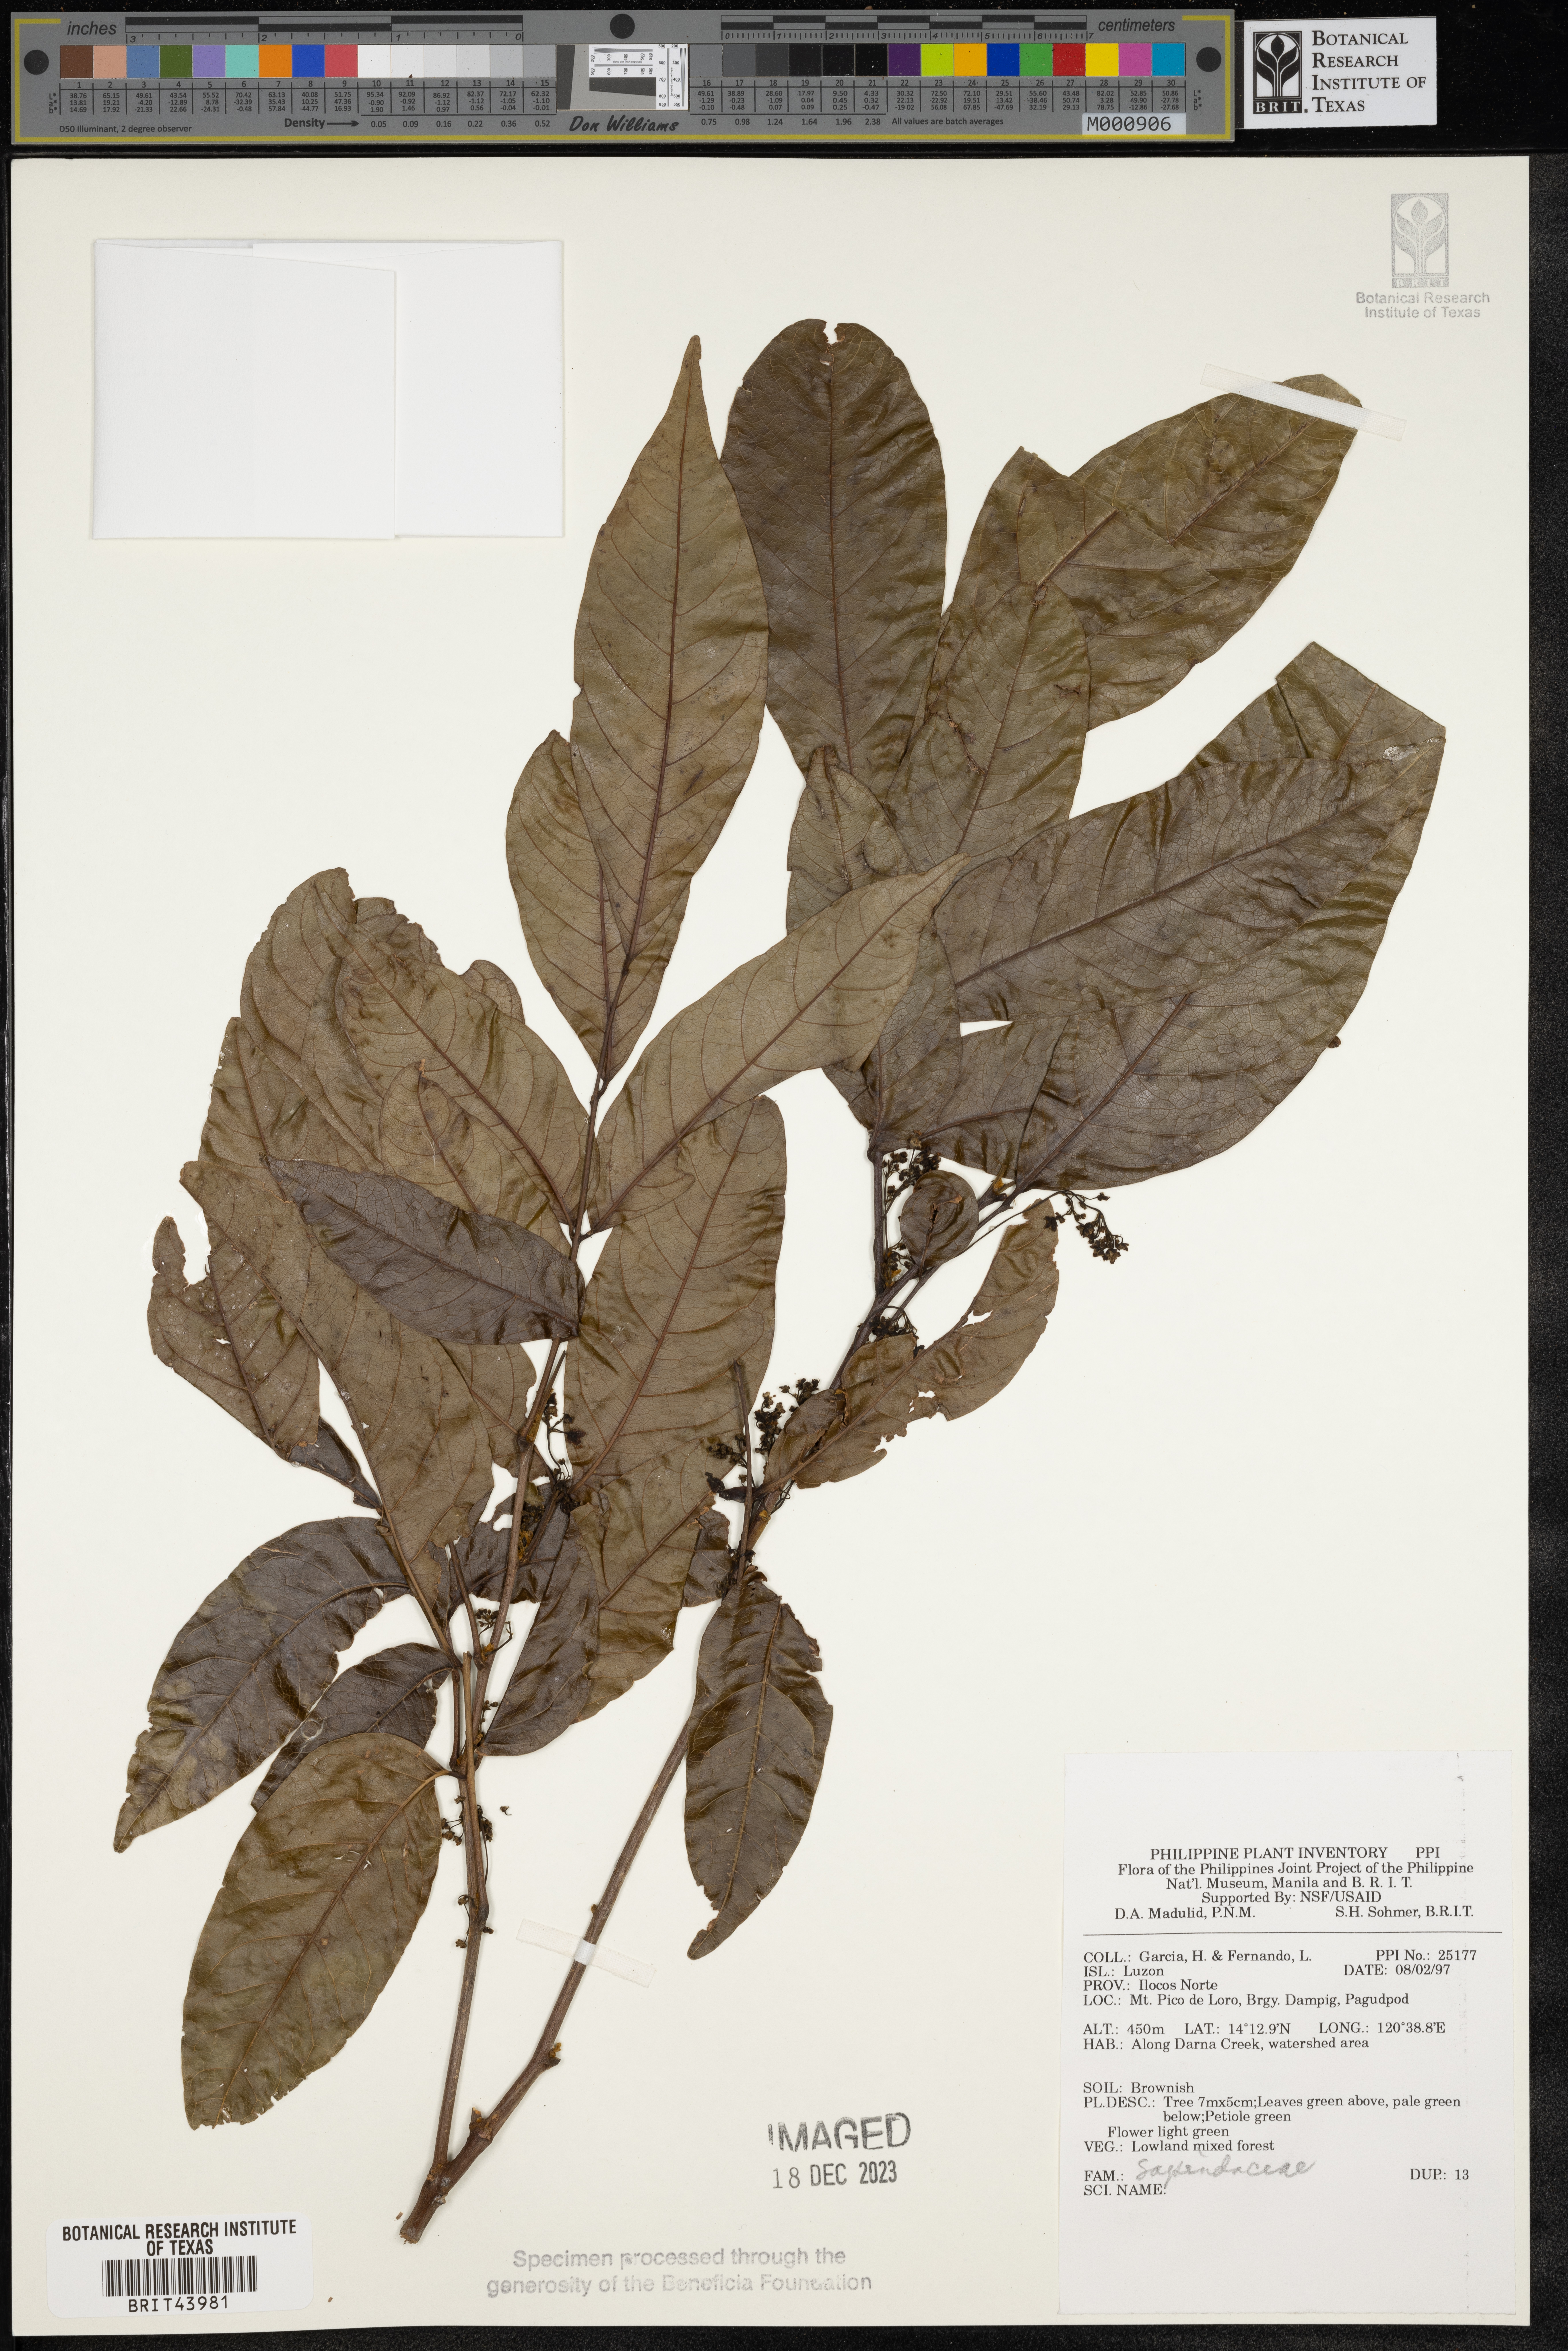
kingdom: Plantae
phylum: Tracheophyta
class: Magnoliopsida
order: Sapindales
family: Sapindaceae
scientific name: Sapindaceae
